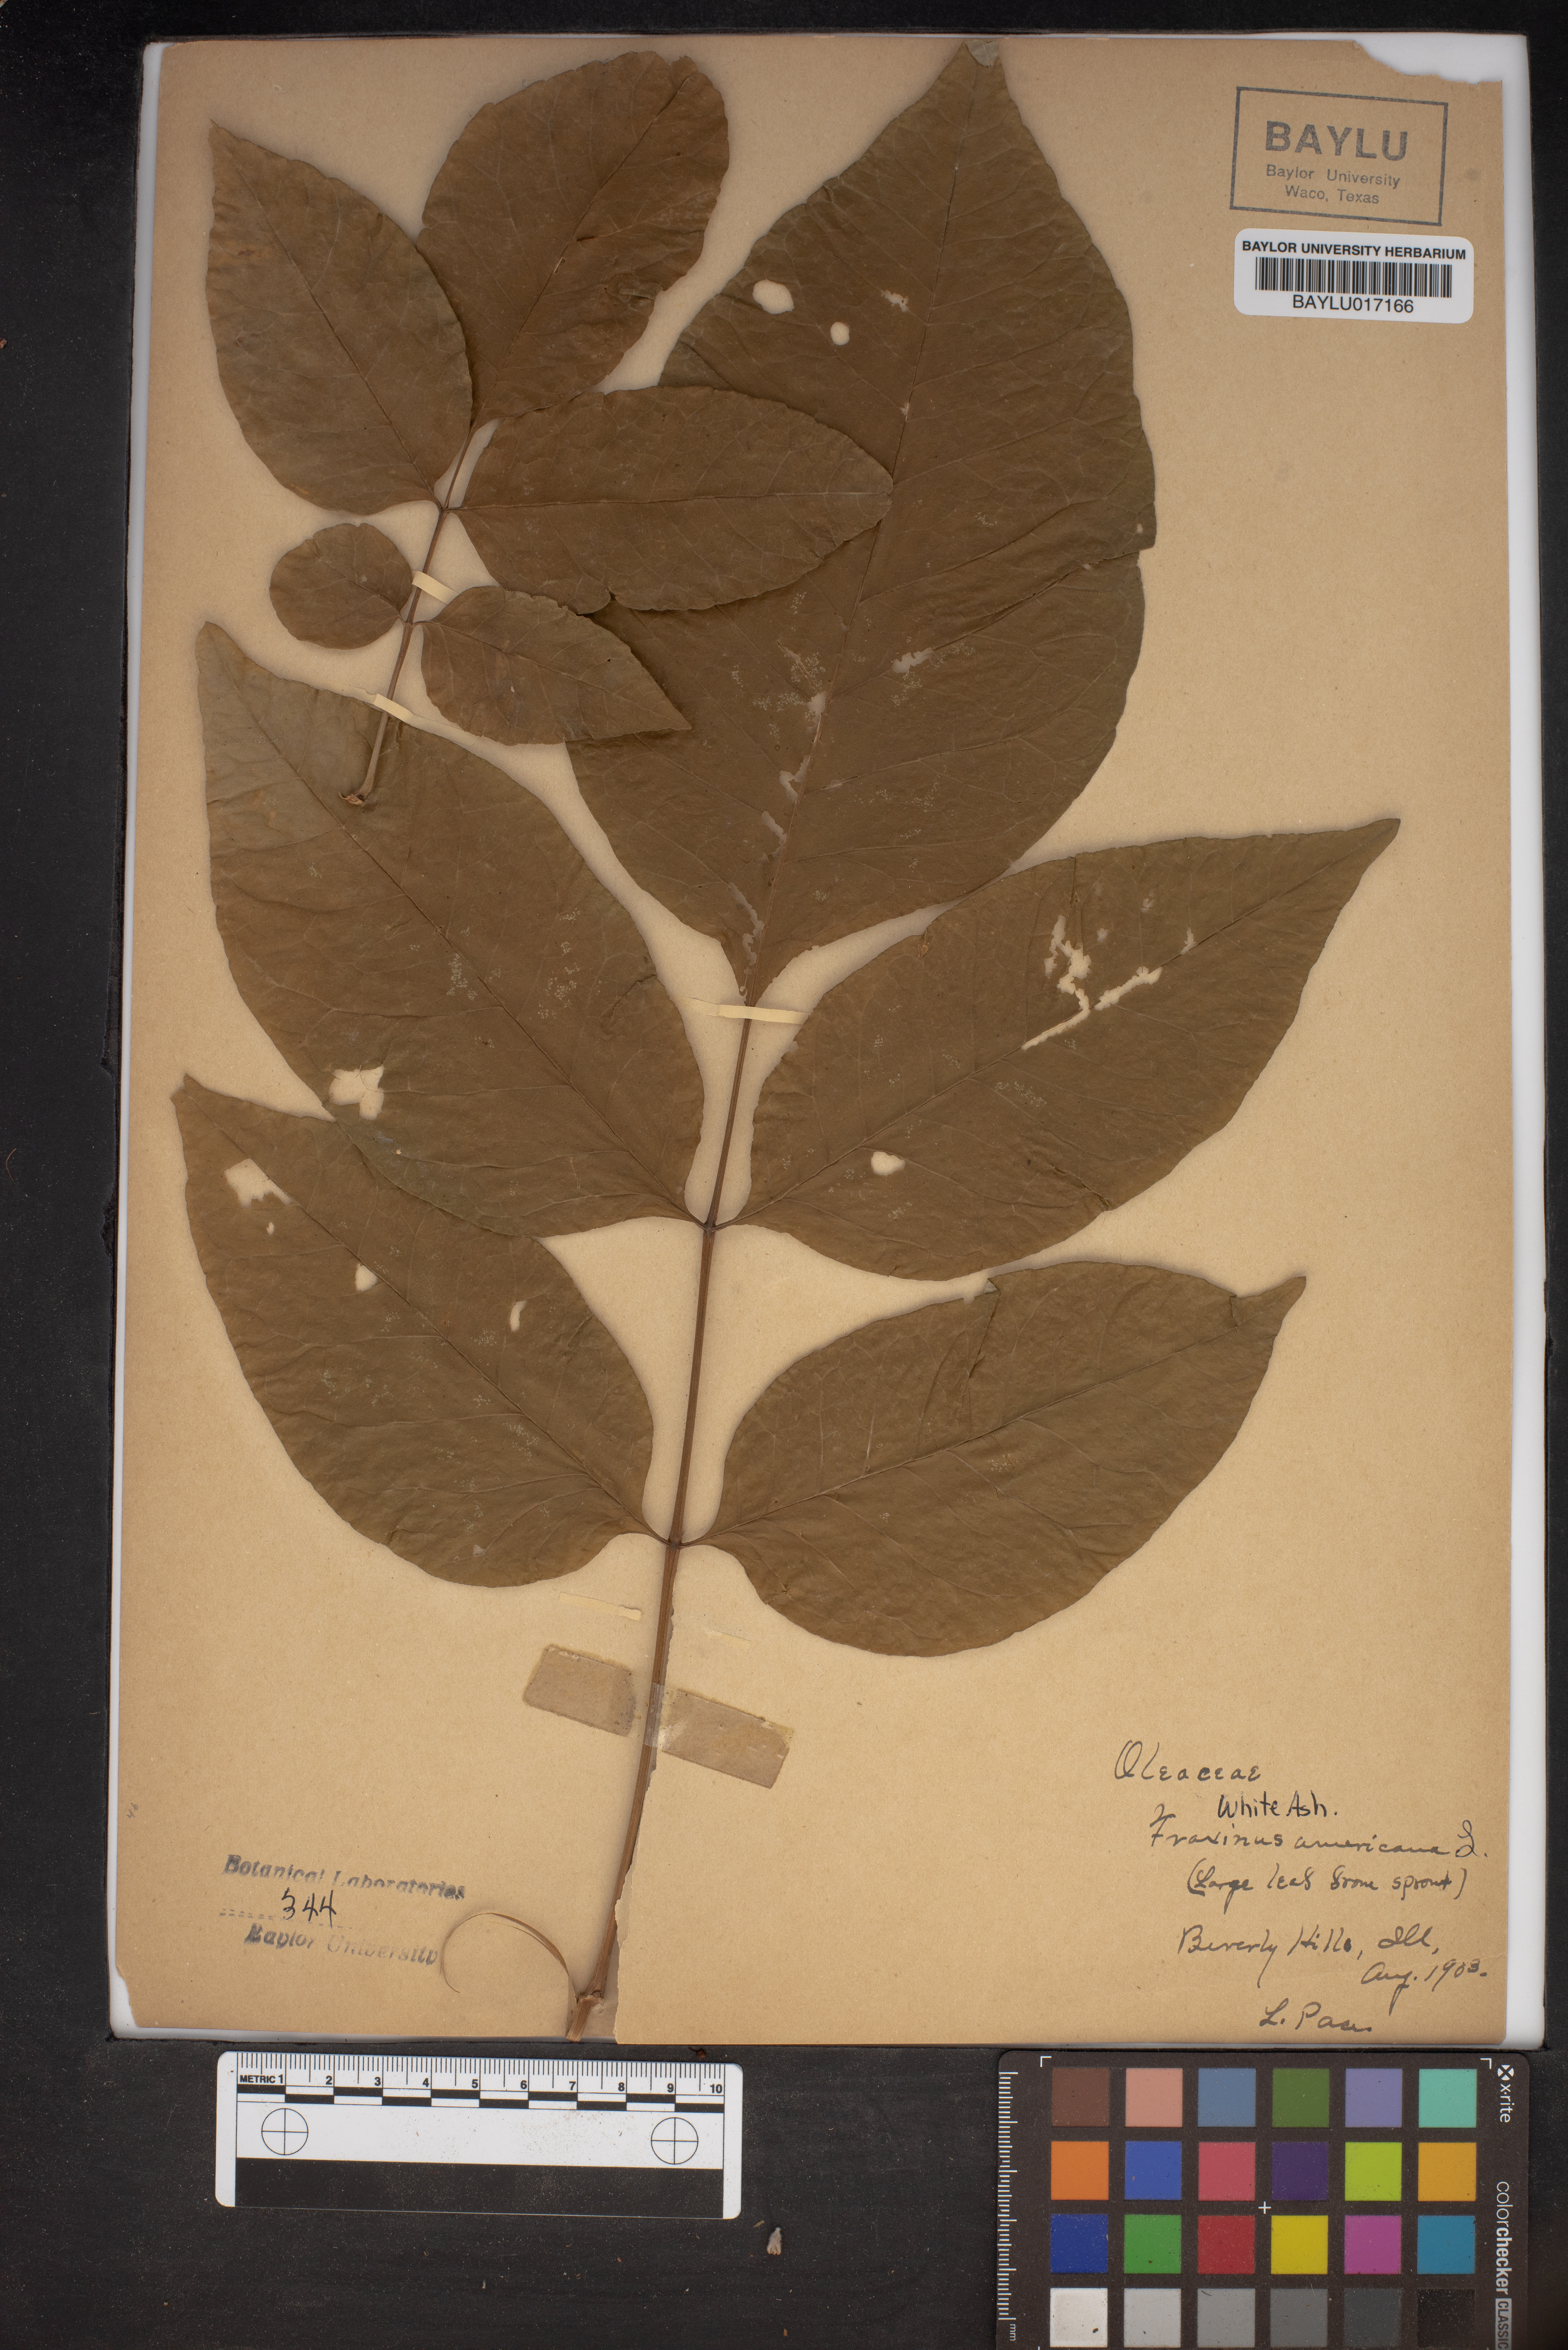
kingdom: Plantae
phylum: Tracheophyta
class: Magnoliopsida
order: Lamiales
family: Oleaceae
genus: Fraxinus
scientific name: Fraxinus americana
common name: White ash
